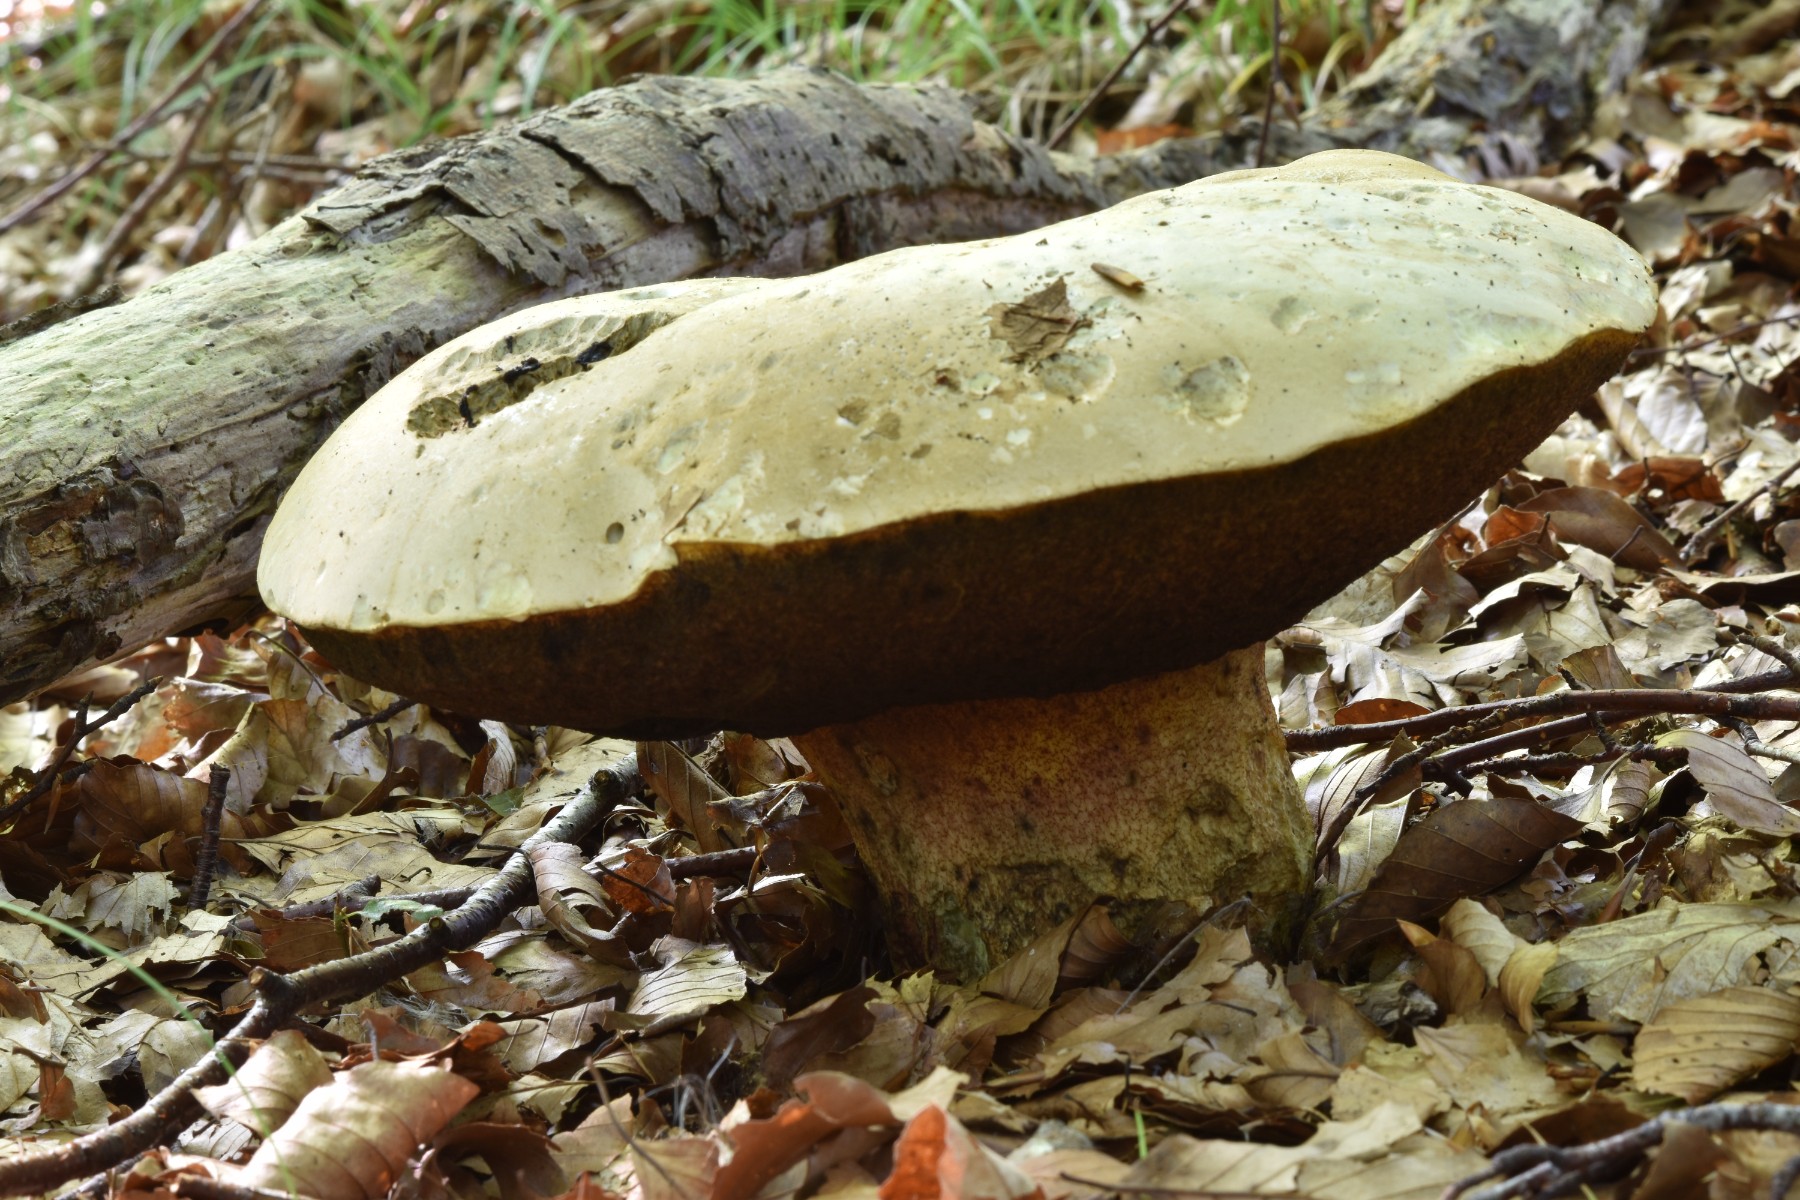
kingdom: Fungi
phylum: Basidiomycota
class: Agaricomycetes
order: Boletales
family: Boletaceae
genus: Rubroboletus
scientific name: Rubroboletus satanas
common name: Satans rørhat
